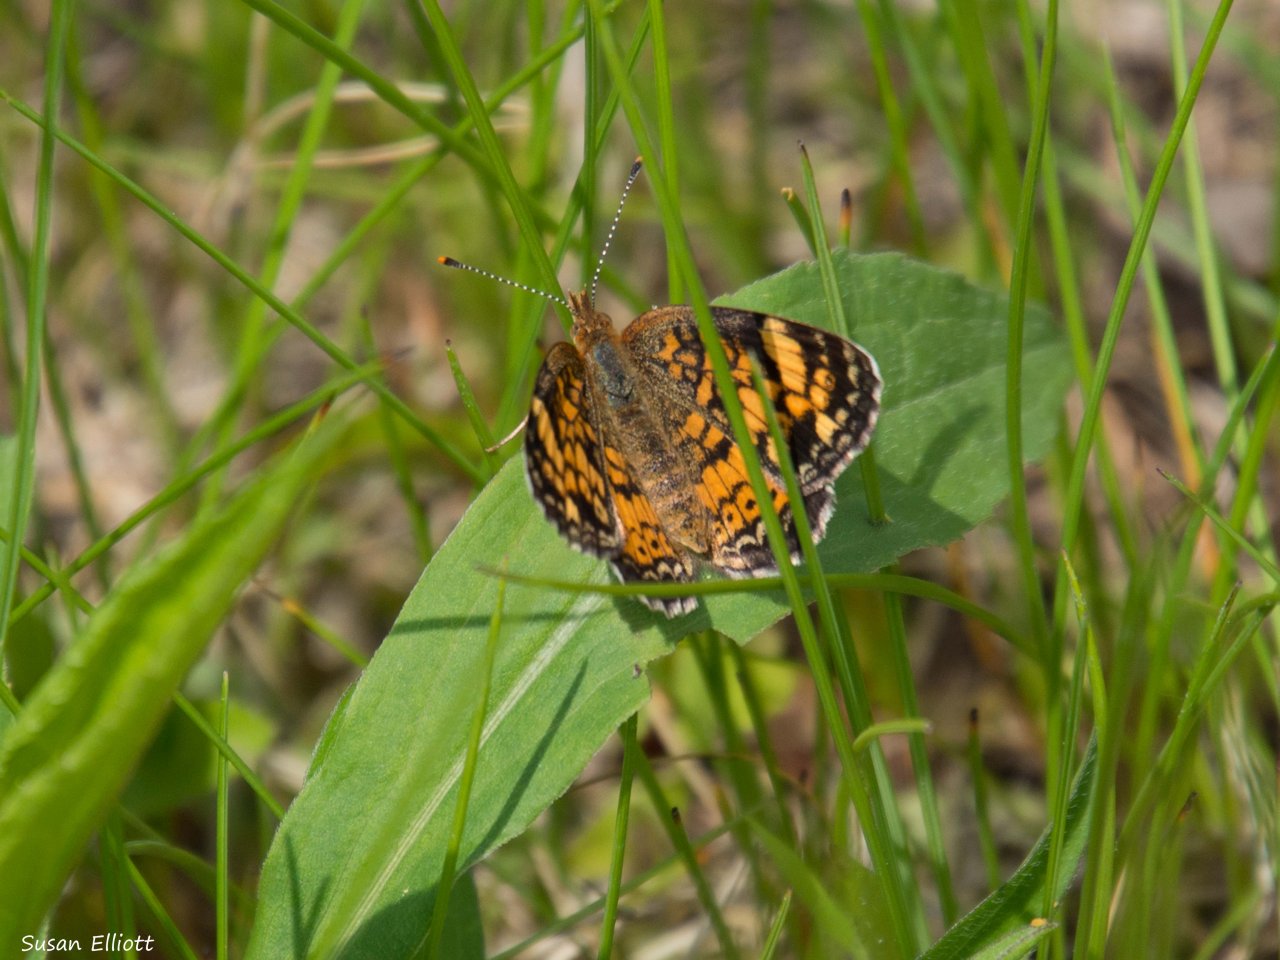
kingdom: Animalia
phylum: Arthropoda
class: Insecta
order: Lepidoptera
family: Nymphalidae
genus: Phyciodes
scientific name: Phyciodes
